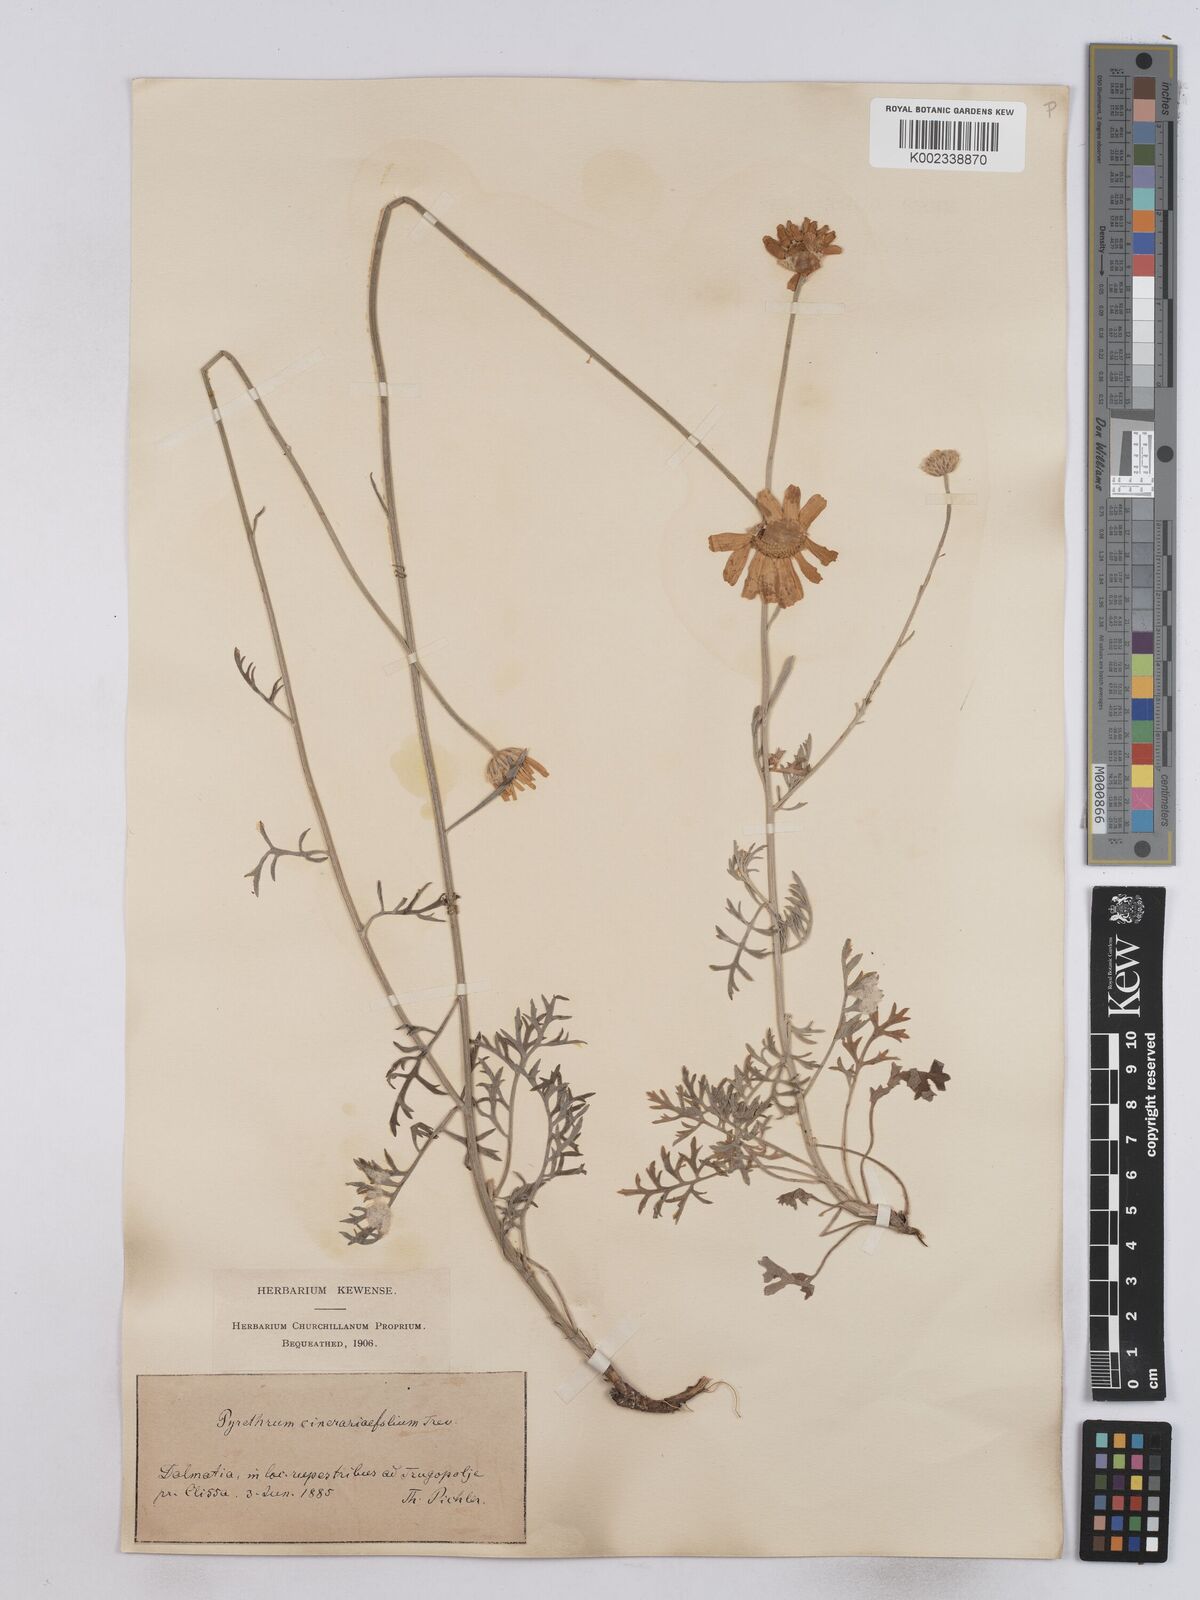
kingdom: Plantae
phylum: Tracheophyta
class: Magnoliopsida
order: Asterales
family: Asteraceae
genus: Tanacetum
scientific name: Tanacetum cinerariifolium
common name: Dalmatian pyrethrum
